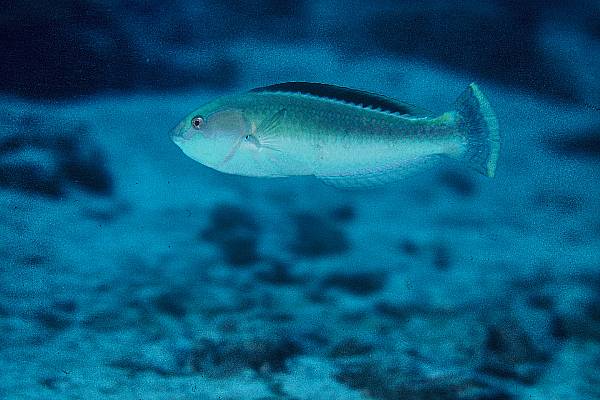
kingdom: Animalia
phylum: Chordata
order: Perciformes
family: Labridae
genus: Halichoeres
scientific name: Halichoeres pelicieri
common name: Peliciers wrasse
